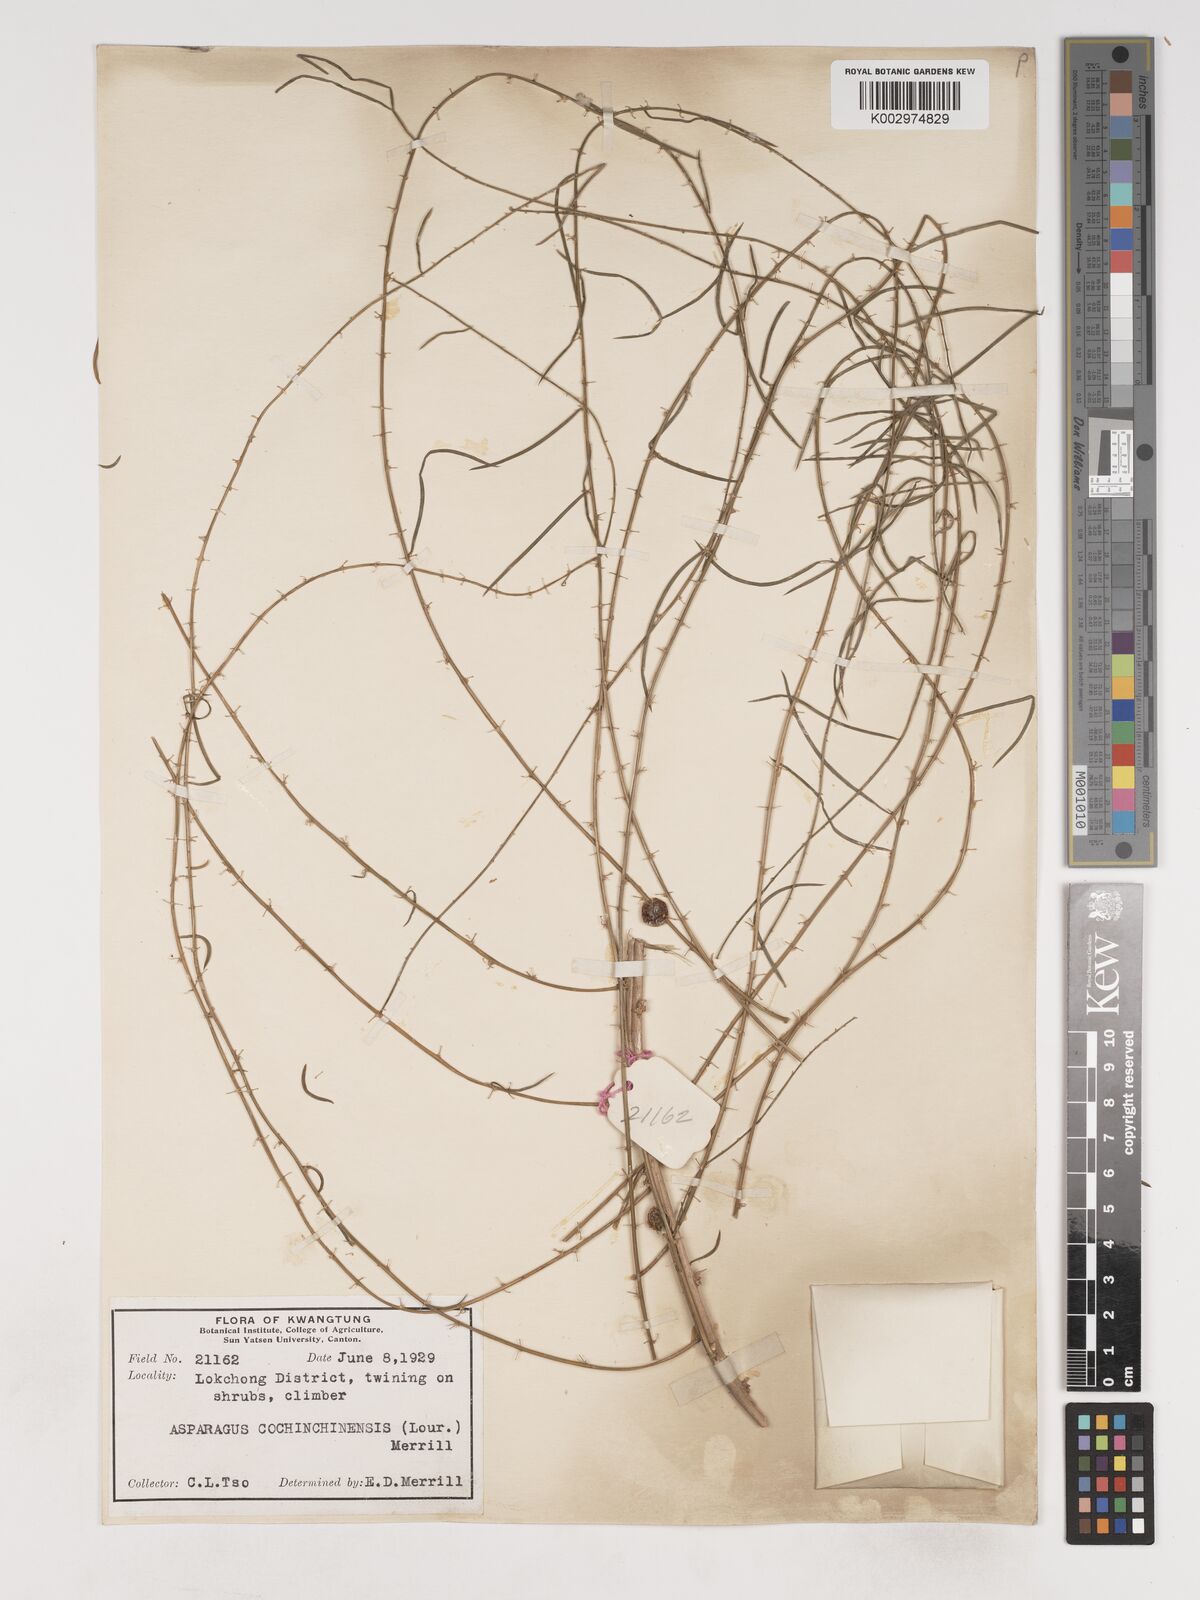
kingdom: Plantae
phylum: Tracheophyta
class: Liliopsida
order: Asparagales
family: Asparagaceae
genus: Asparagus
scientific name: Asparagus cochinchinensis
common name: Chinese asparagus
